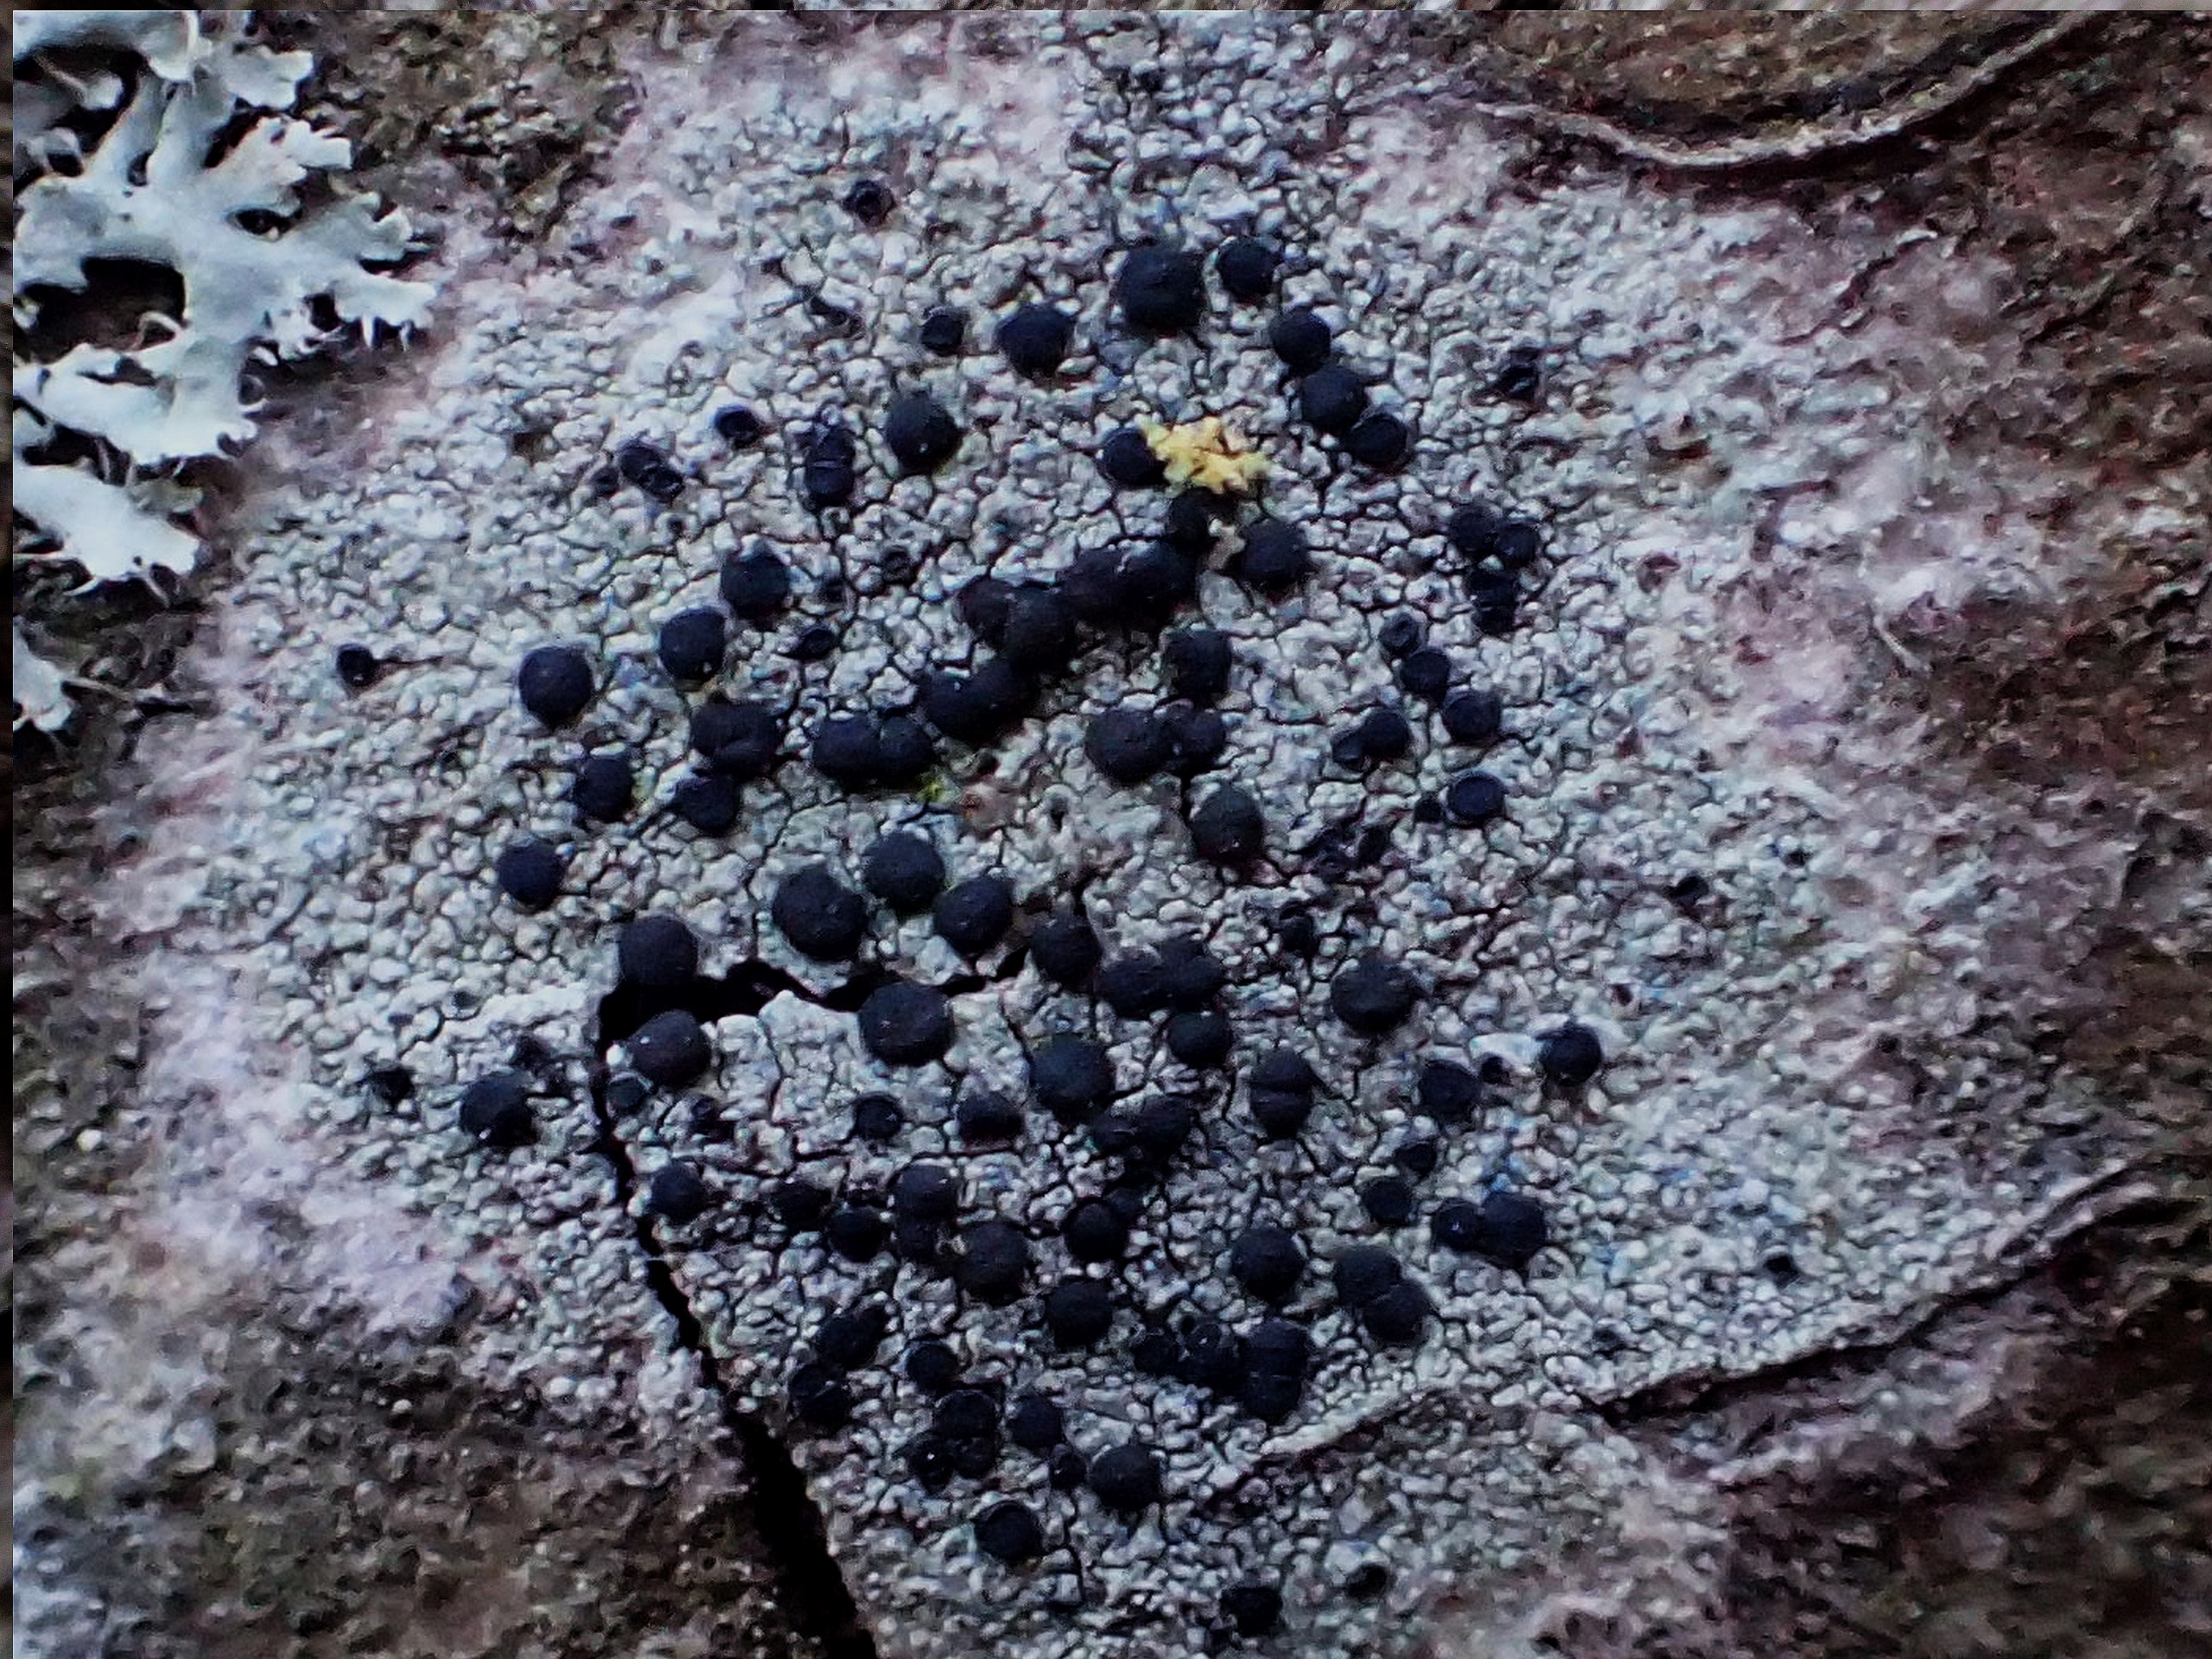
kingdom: Fungi
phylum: Ascomycota
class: Lecanoromycetes
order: Lecanorales
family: Lecanoraceae
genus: Lecidella
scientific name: Lecidella elaeochroma
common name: Grågrøn skivelav
